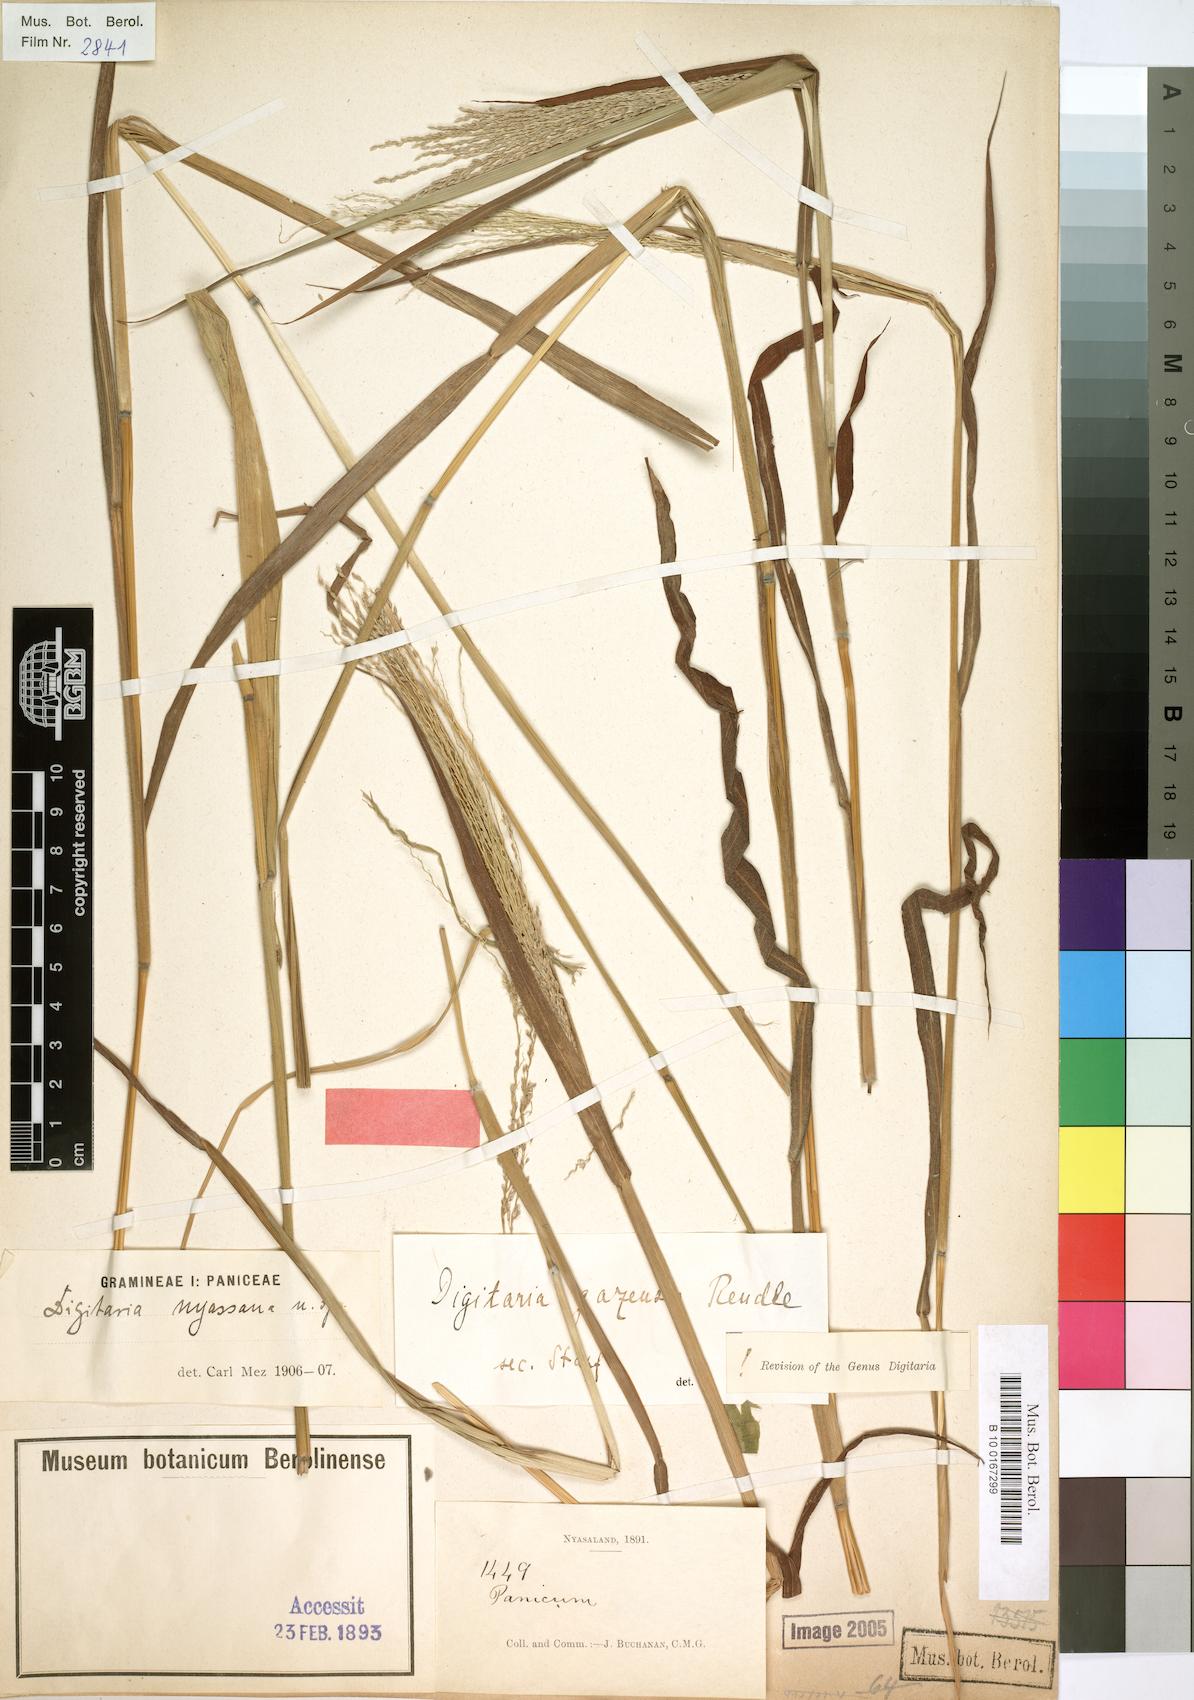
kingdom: Plantae
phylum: Tracheophyta
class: Liliopsida
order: Poales
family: Poaceae
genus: Digitaria
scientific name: Digitaria gazensis
